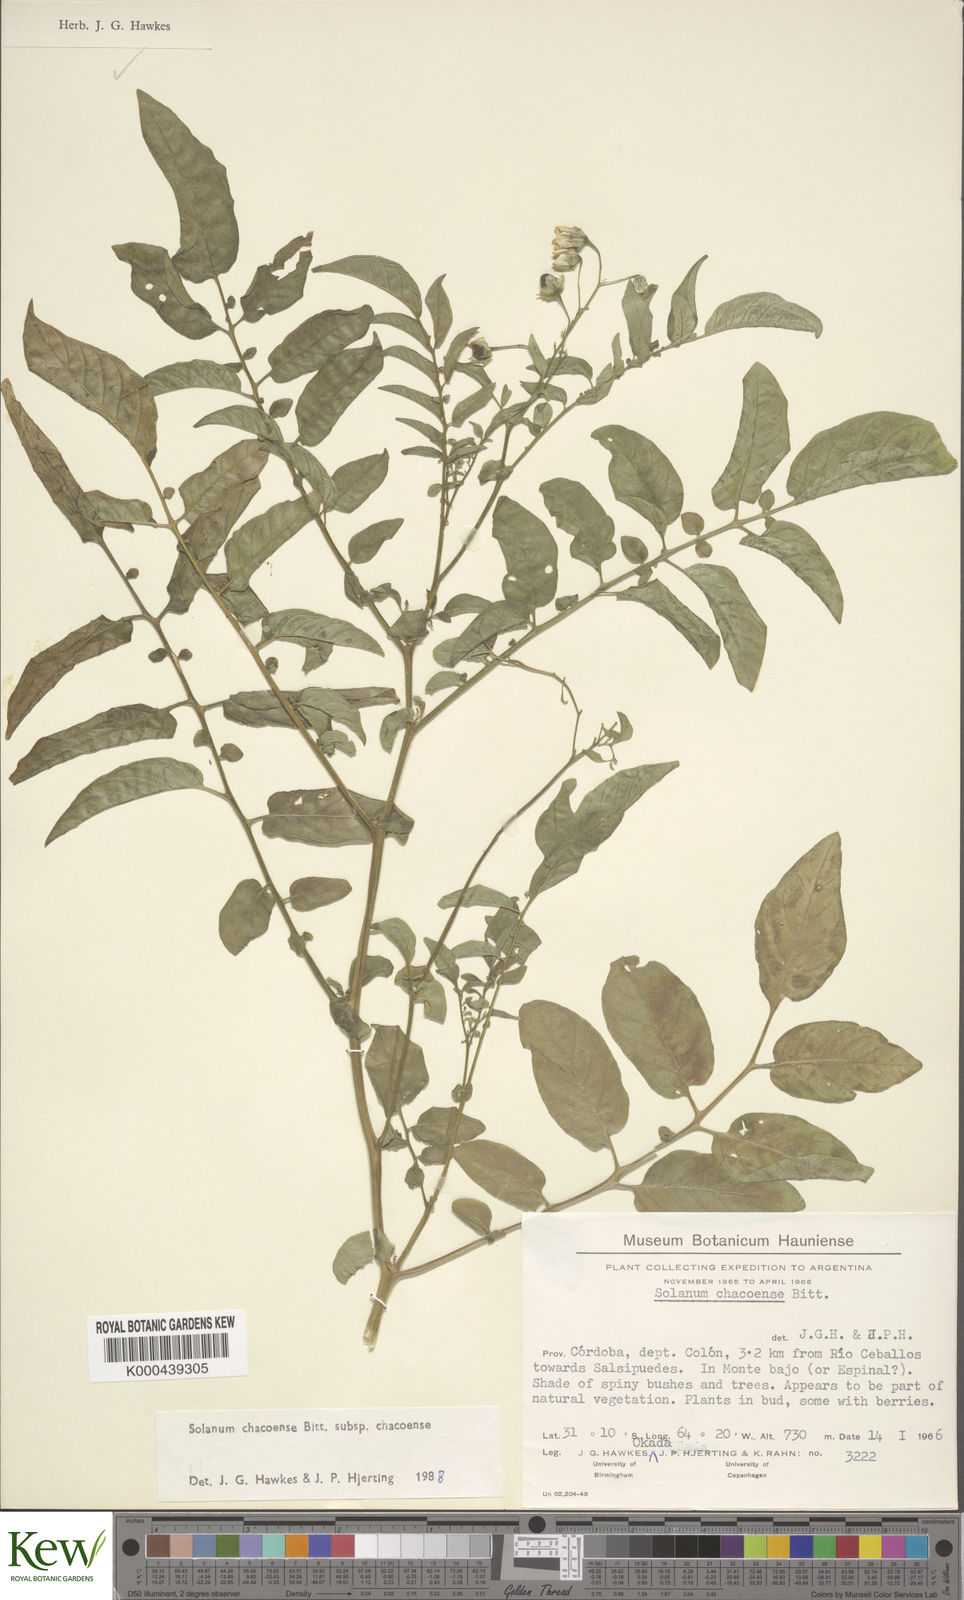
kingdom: Plantae
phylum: Tracheophyta
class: Magnoliopsida
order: Solanales
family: Solanaceae
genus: Solanum
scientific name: Solanum chacoense
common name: Chaco potato
